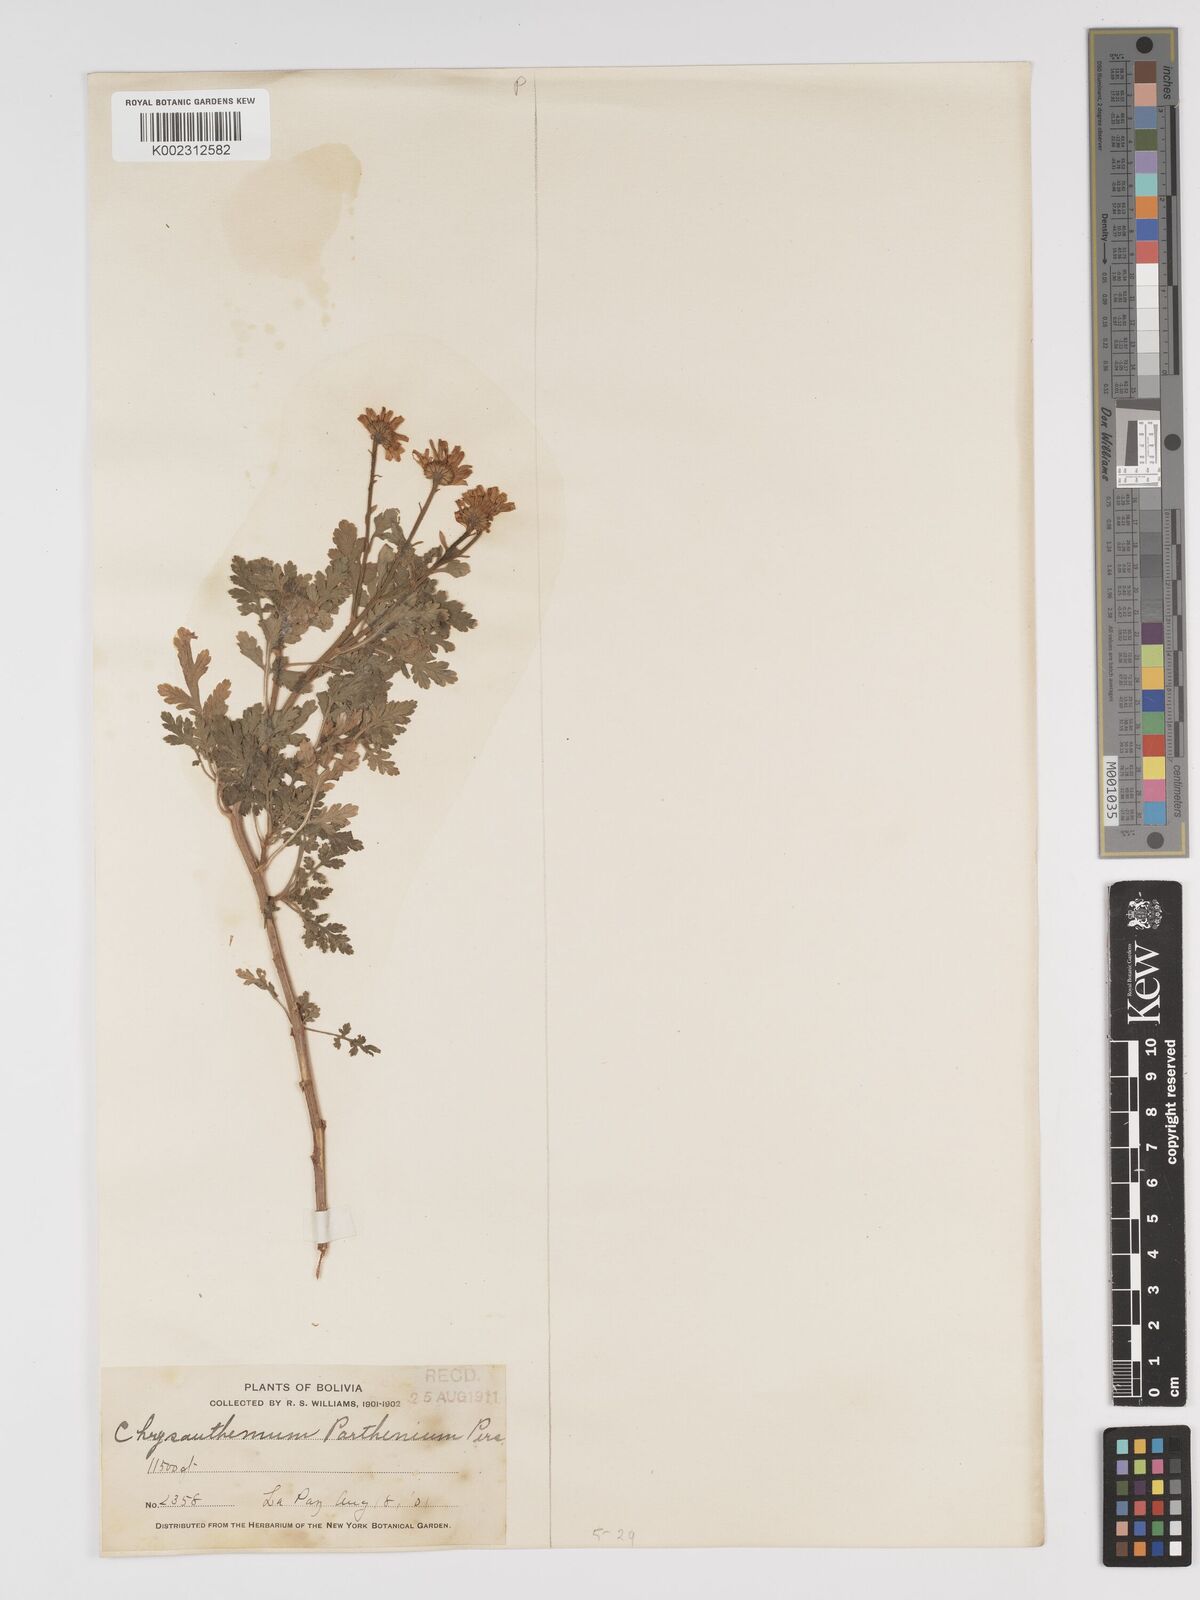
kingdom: Plantae
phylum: Tracheophyta
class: Magnoliopsida
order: Asterales
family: Asteraceae
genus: Tanacetum
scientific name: Tanacetum parthenium
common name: Feverfew
